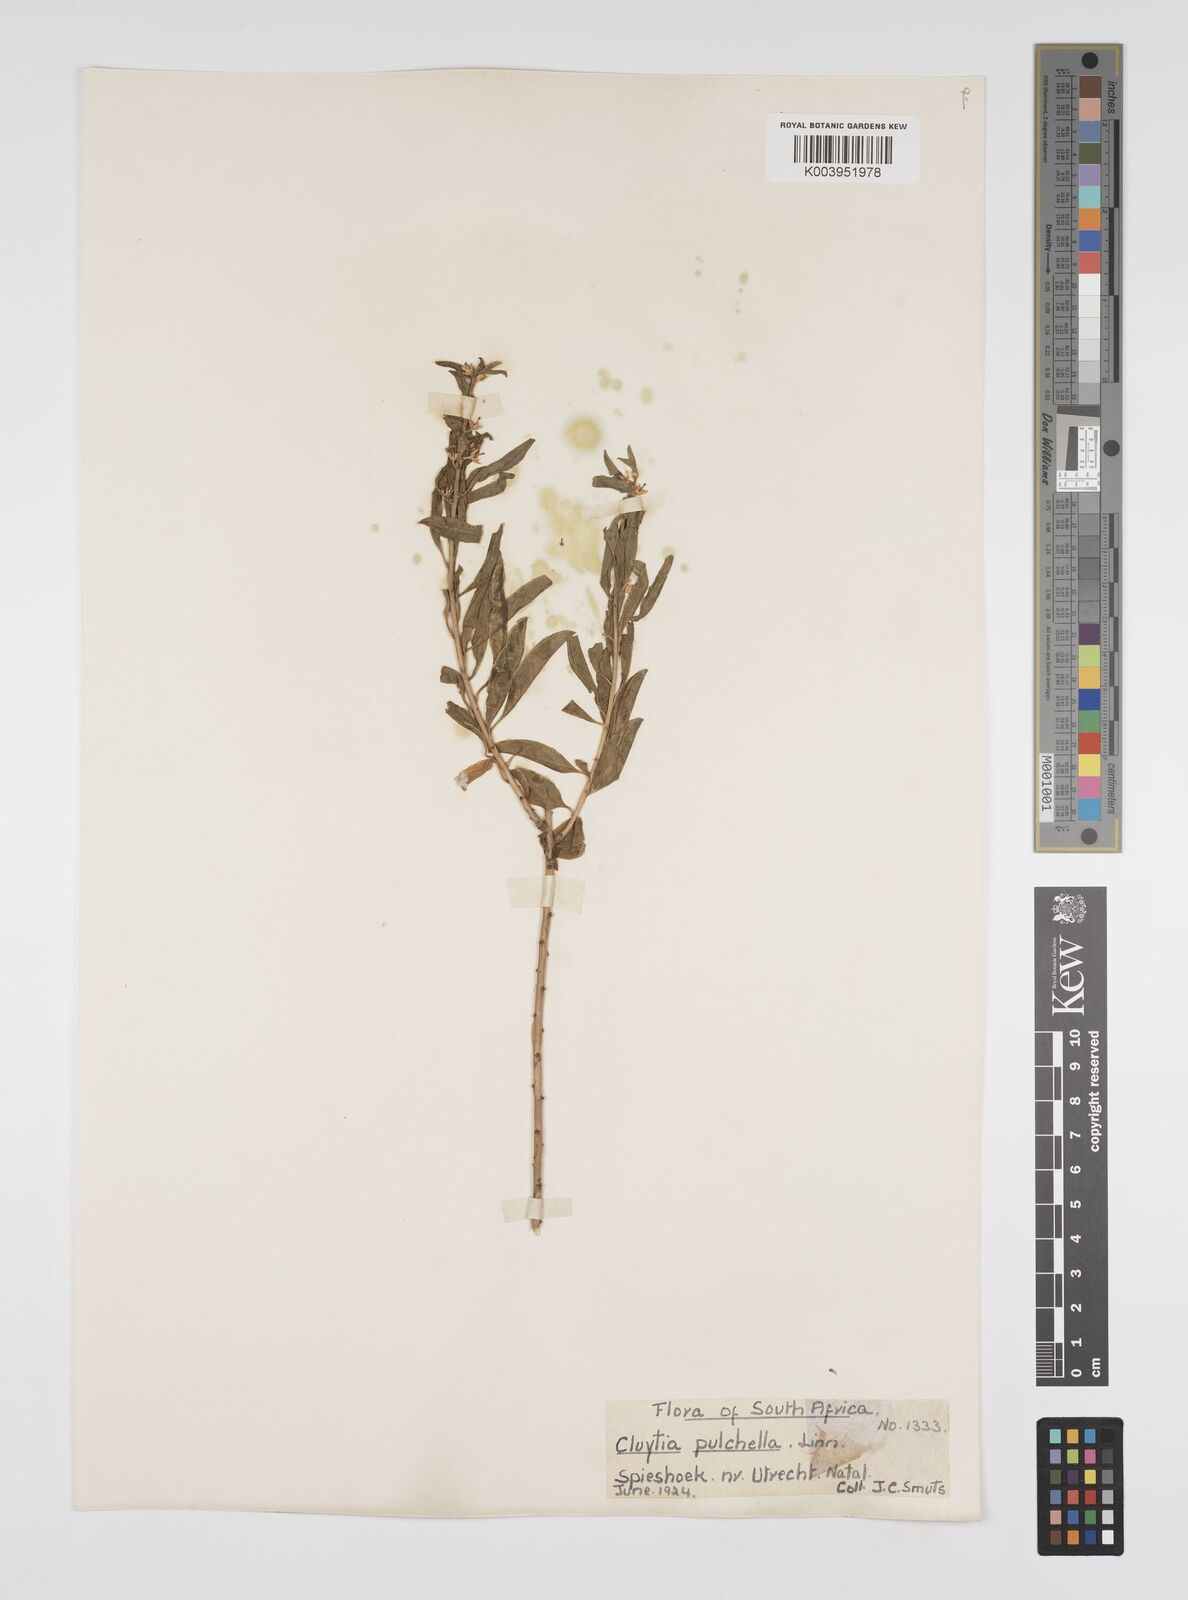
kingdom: Plantae
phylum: Tracheophyta
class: Magnoliopsida
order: Malpighiales
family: Peraceae
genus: Clutia
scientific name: Clutia pulchella
